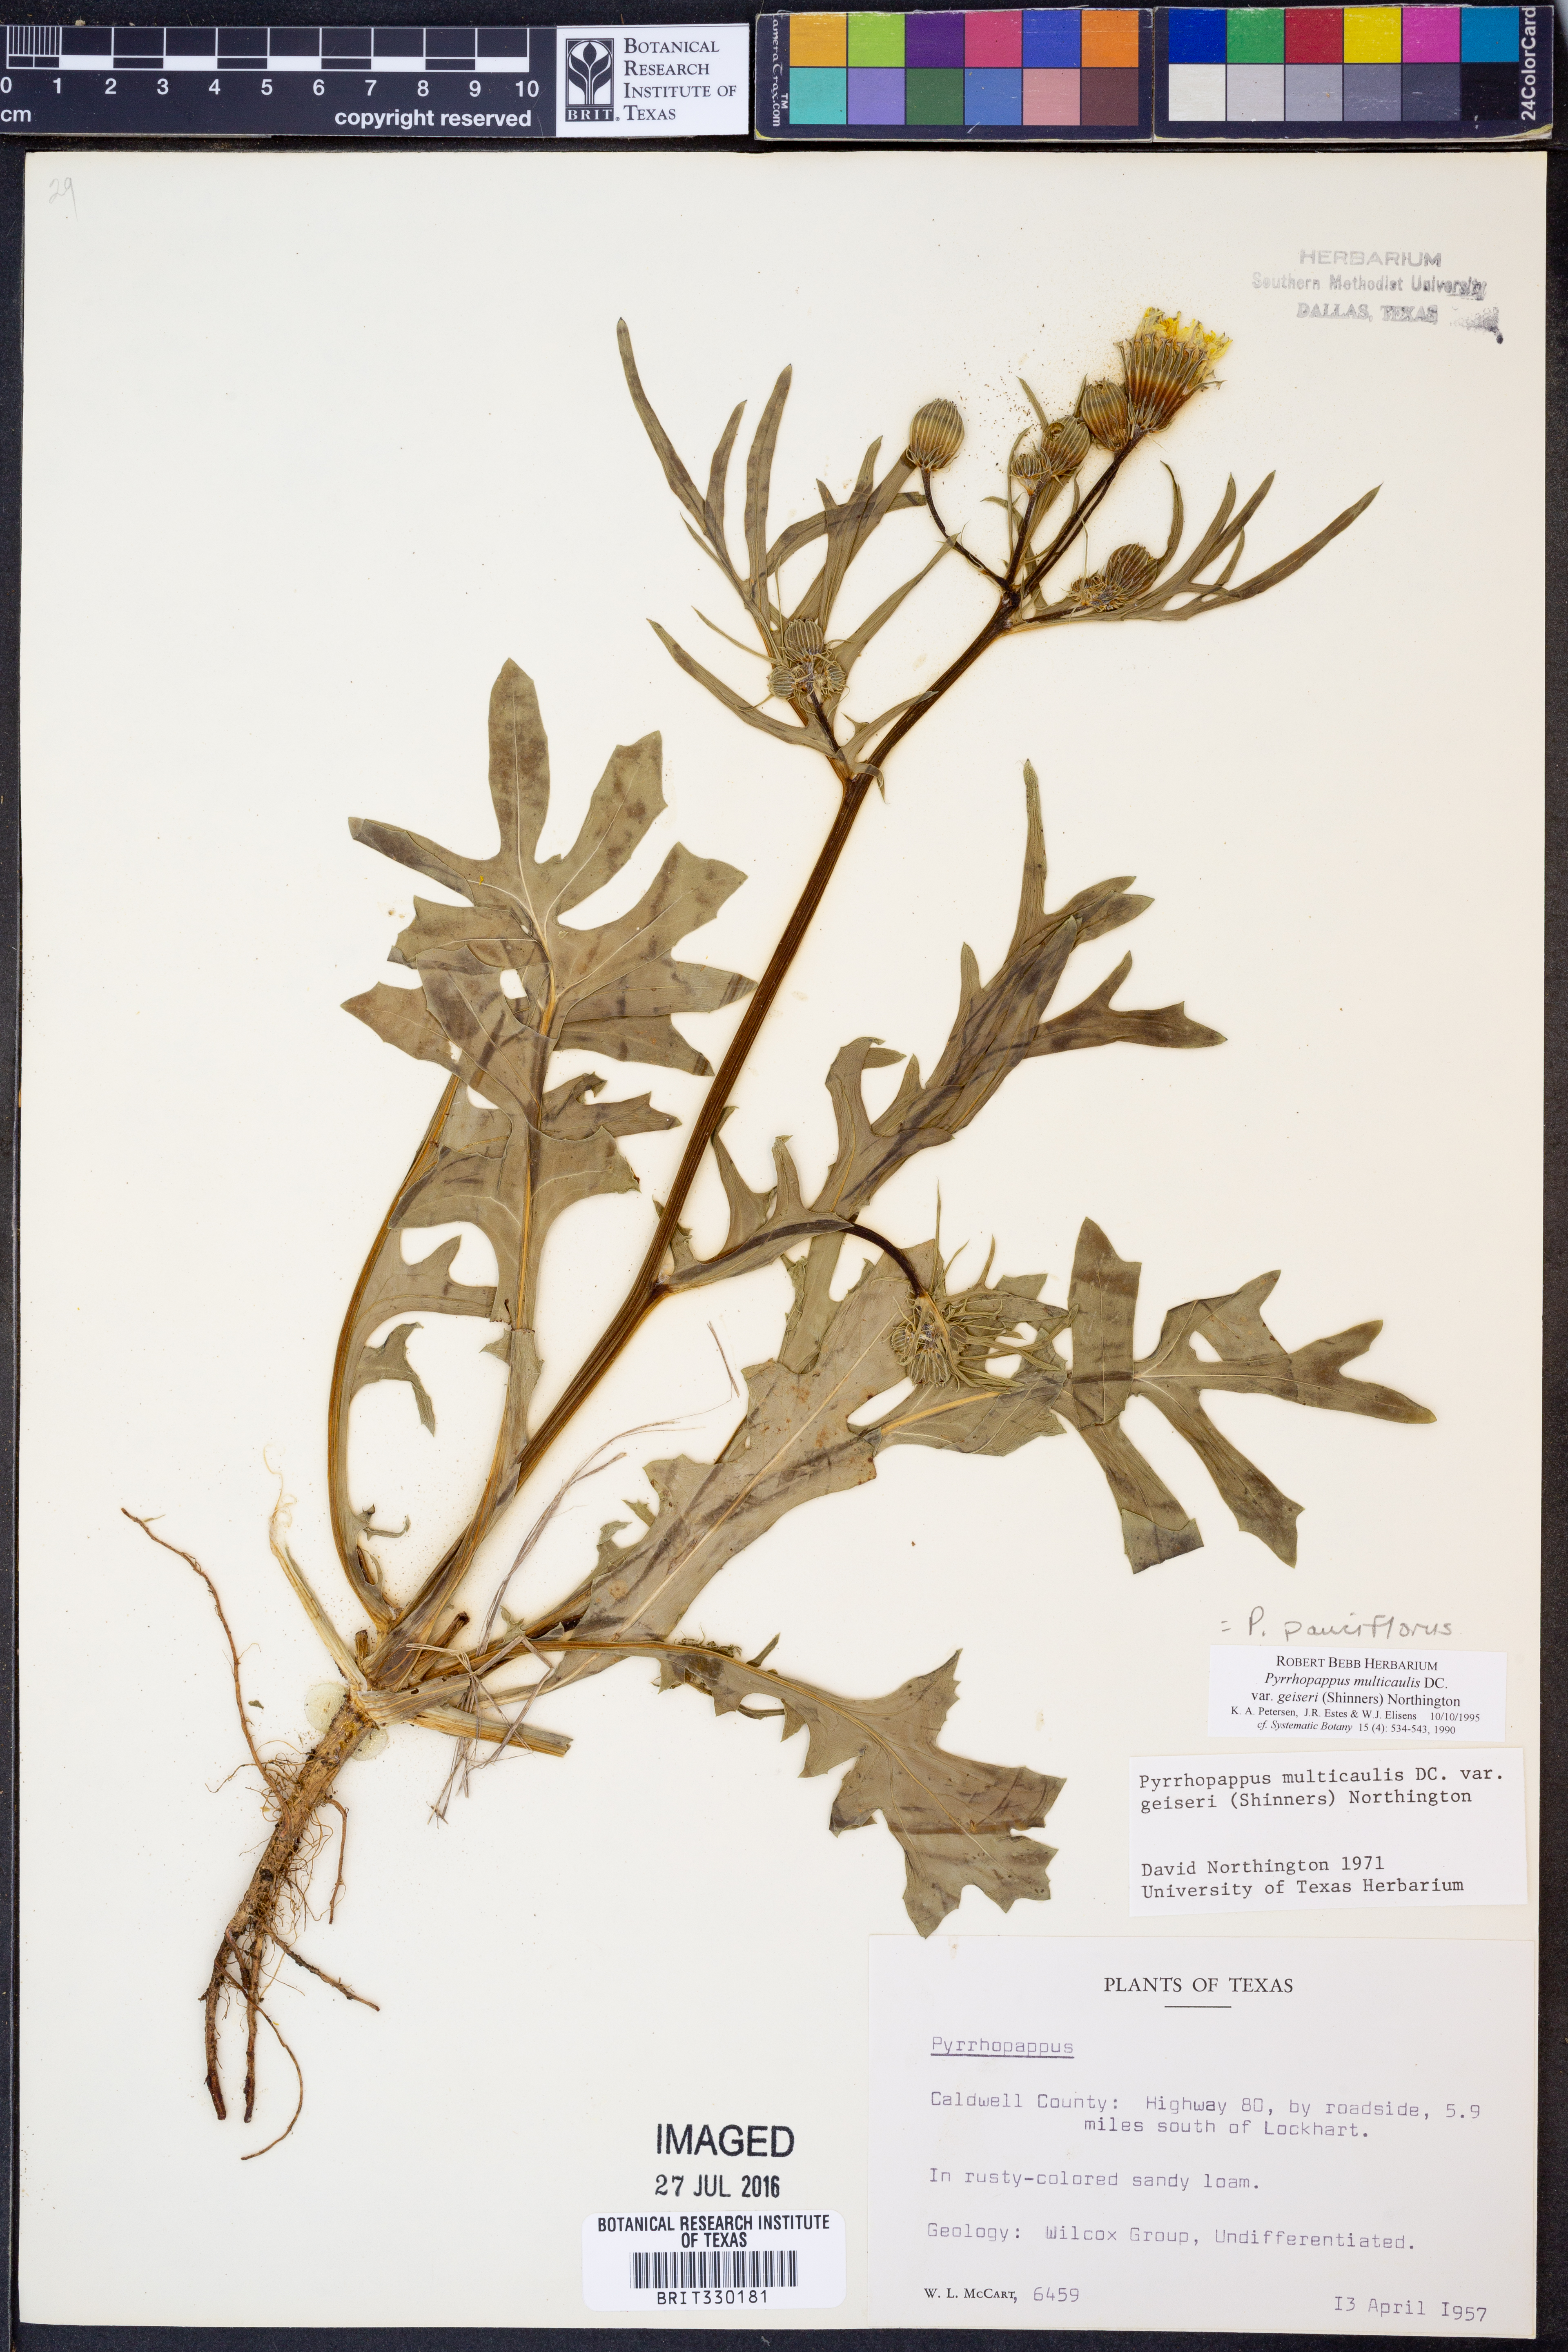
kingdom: Plantae
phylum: Tracheophyta
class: Magnoliopsida
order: Asterales
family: Asteraceae
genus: Pyrrhopappus
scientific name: Pyrrhopappus pauciflorus
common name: Texas false dandelion
